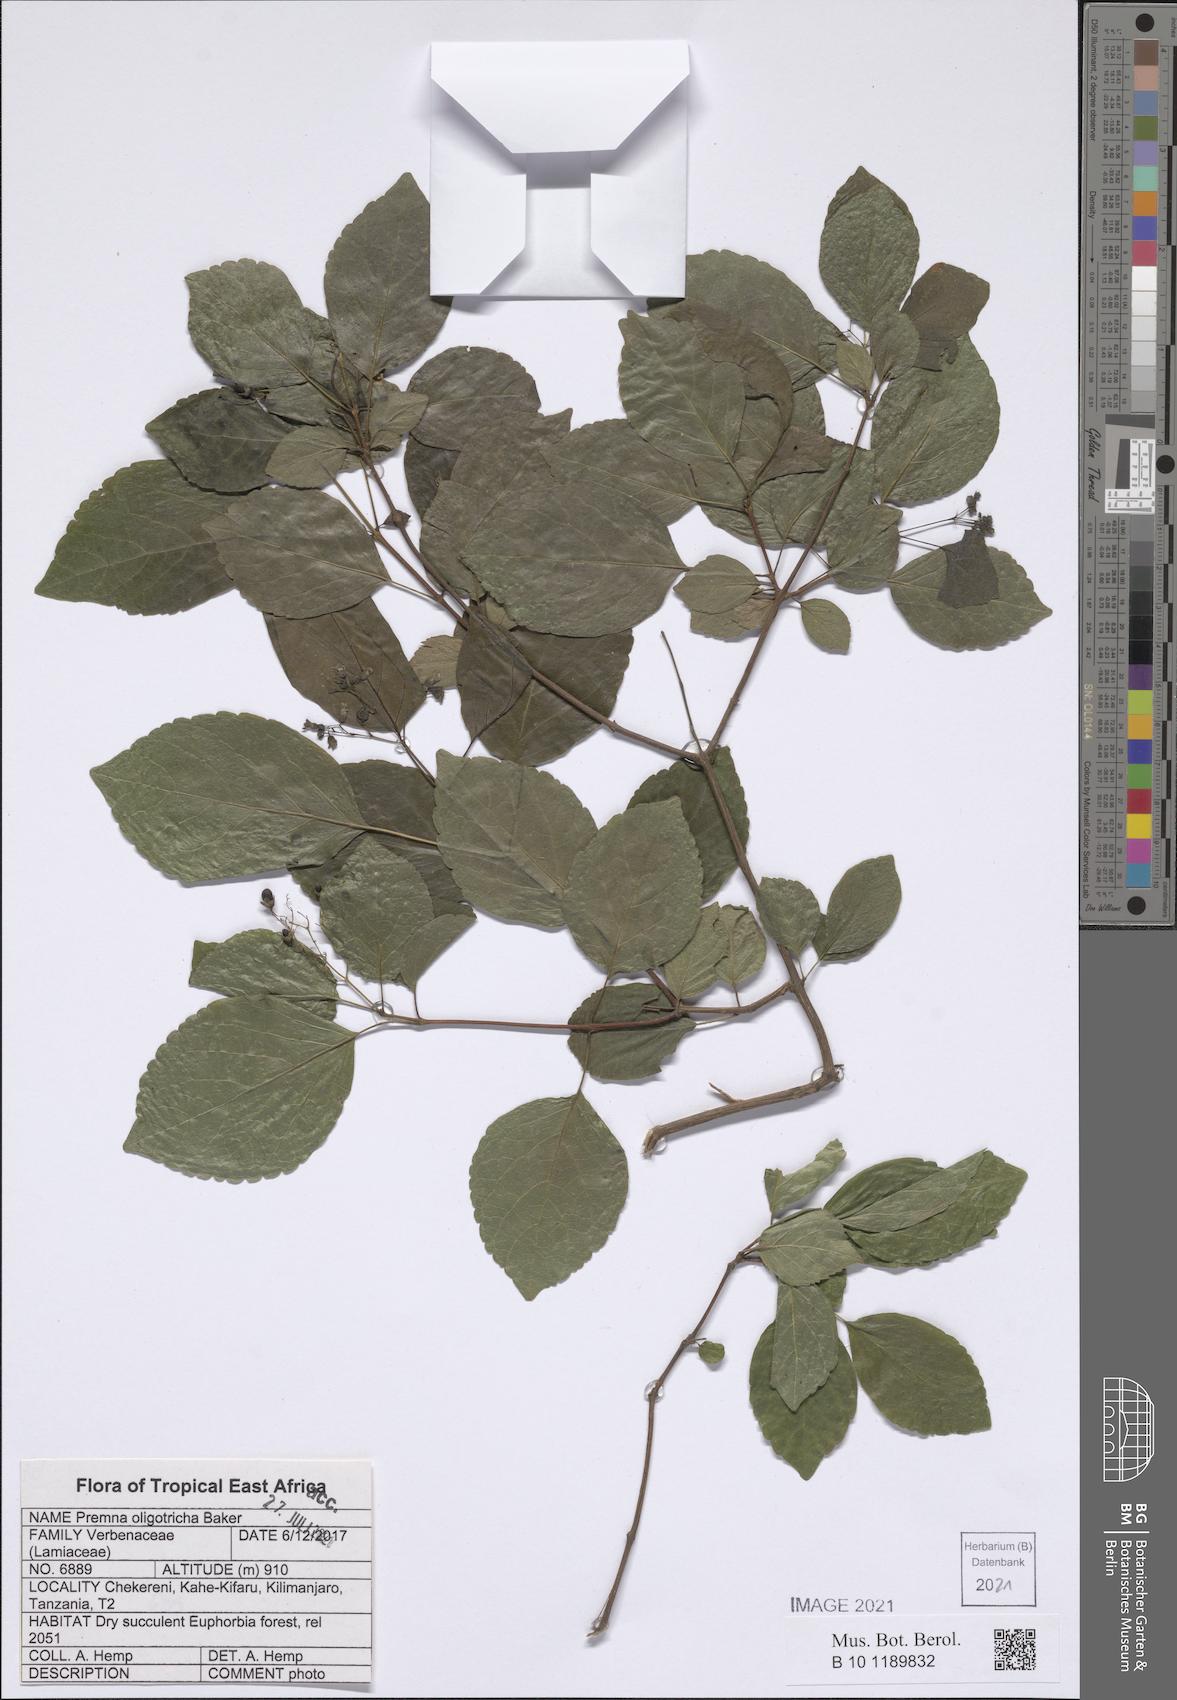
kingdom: Plantae
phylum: Tracheophyta
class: Magnoliopsida
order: Lamiales
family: Lamiaceae
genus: Premna
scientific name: Premna oligotricha
